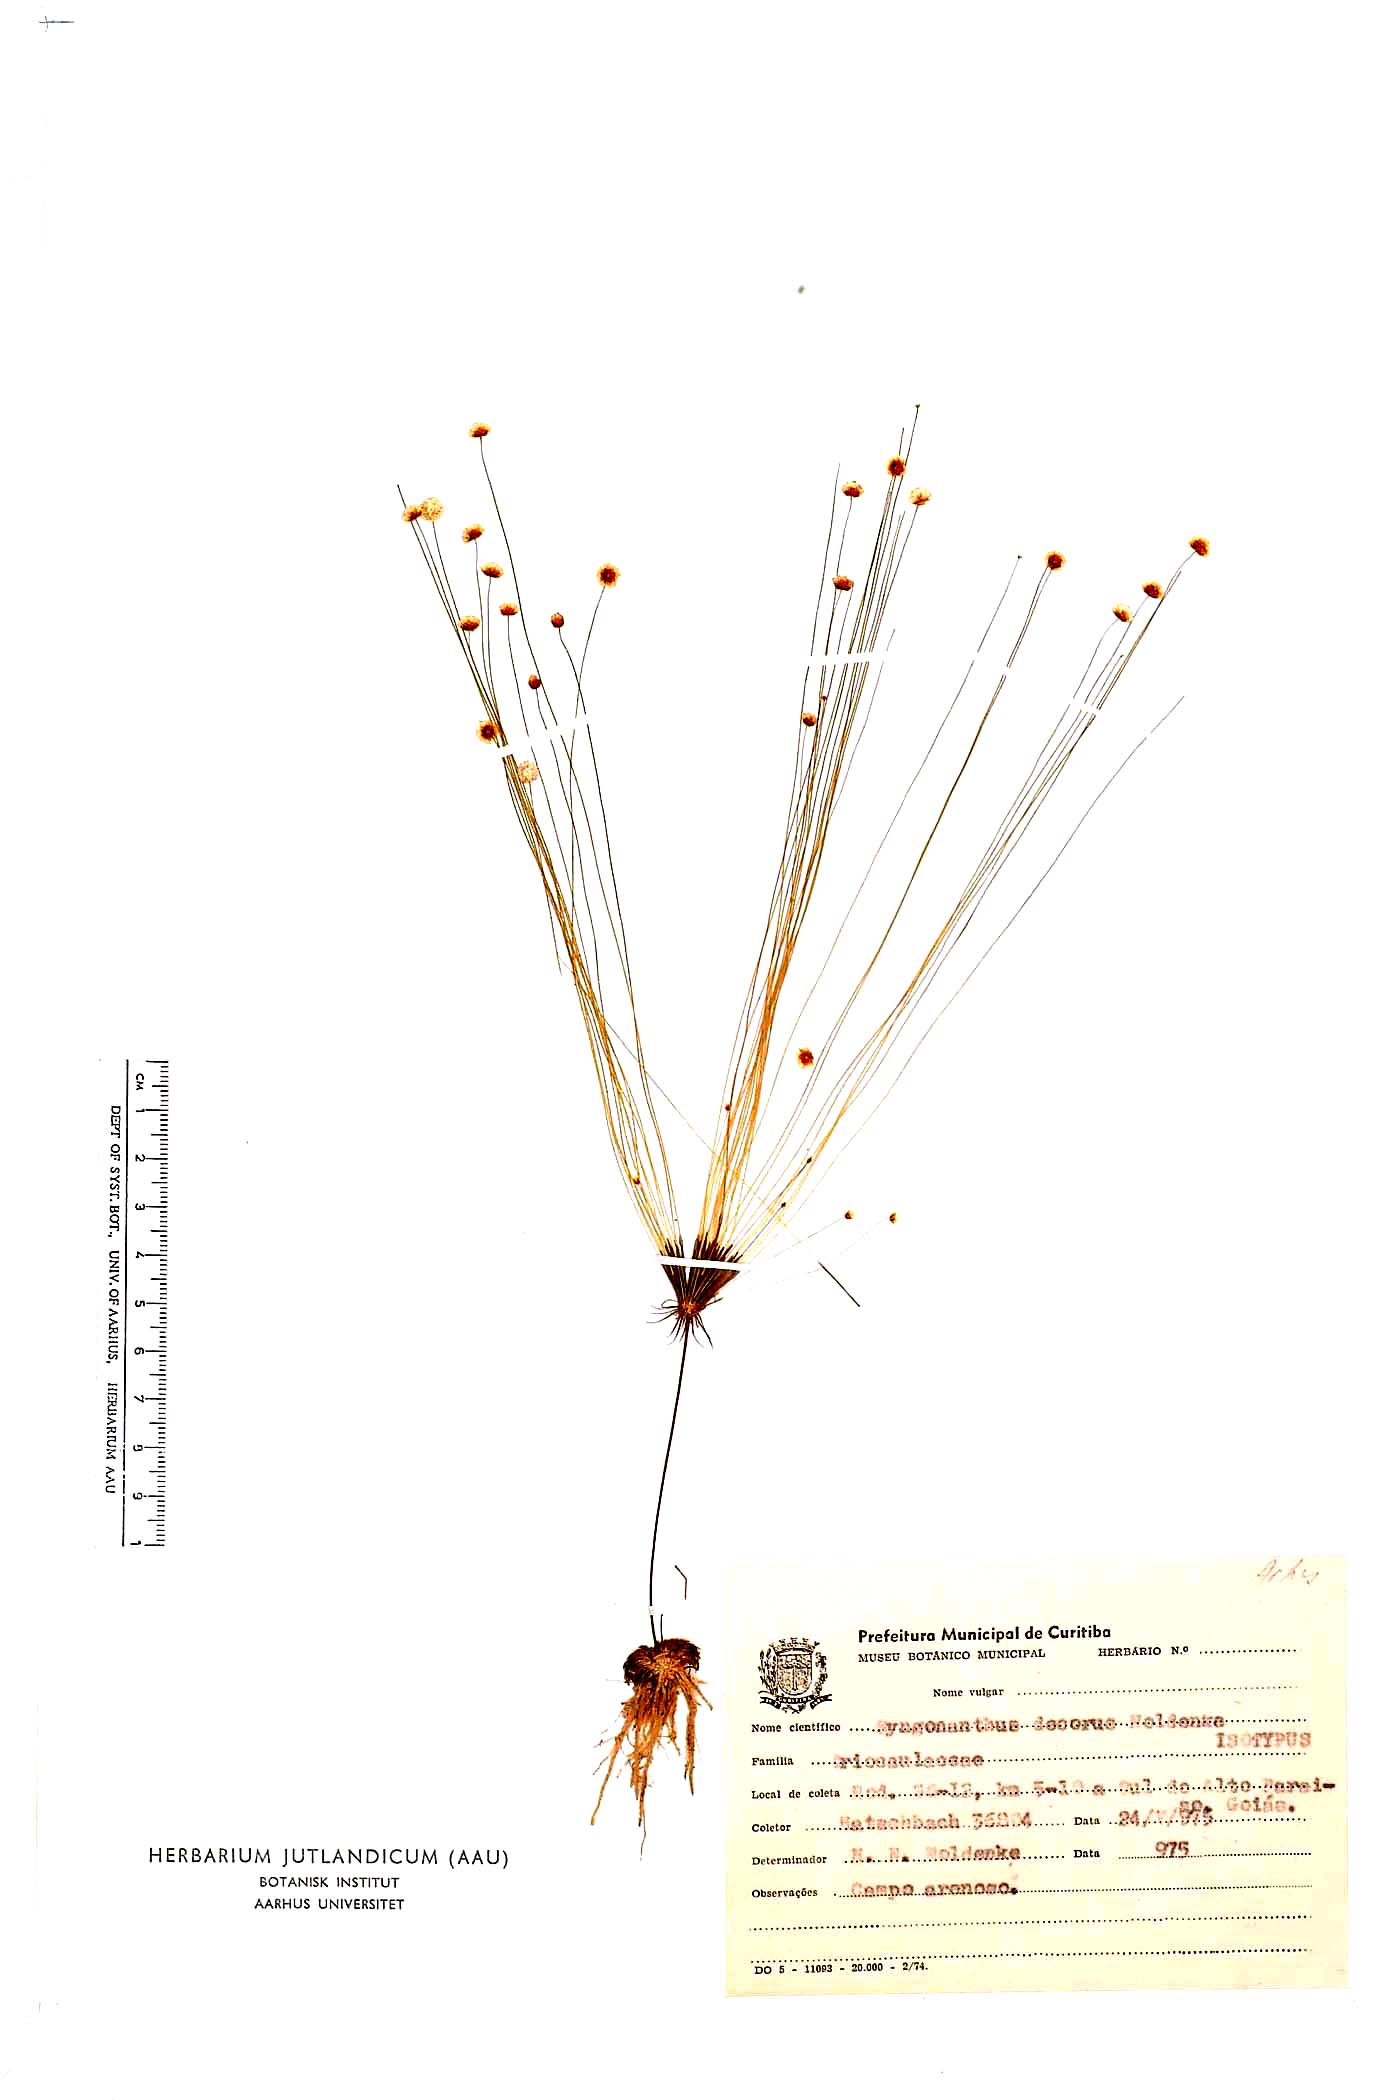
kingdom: Plantae
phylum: Tracheophyta
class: Liliopsida
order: Poales
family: Eriocaulaceae
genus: Syngonanthus
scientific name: Syngonanthus decorus
